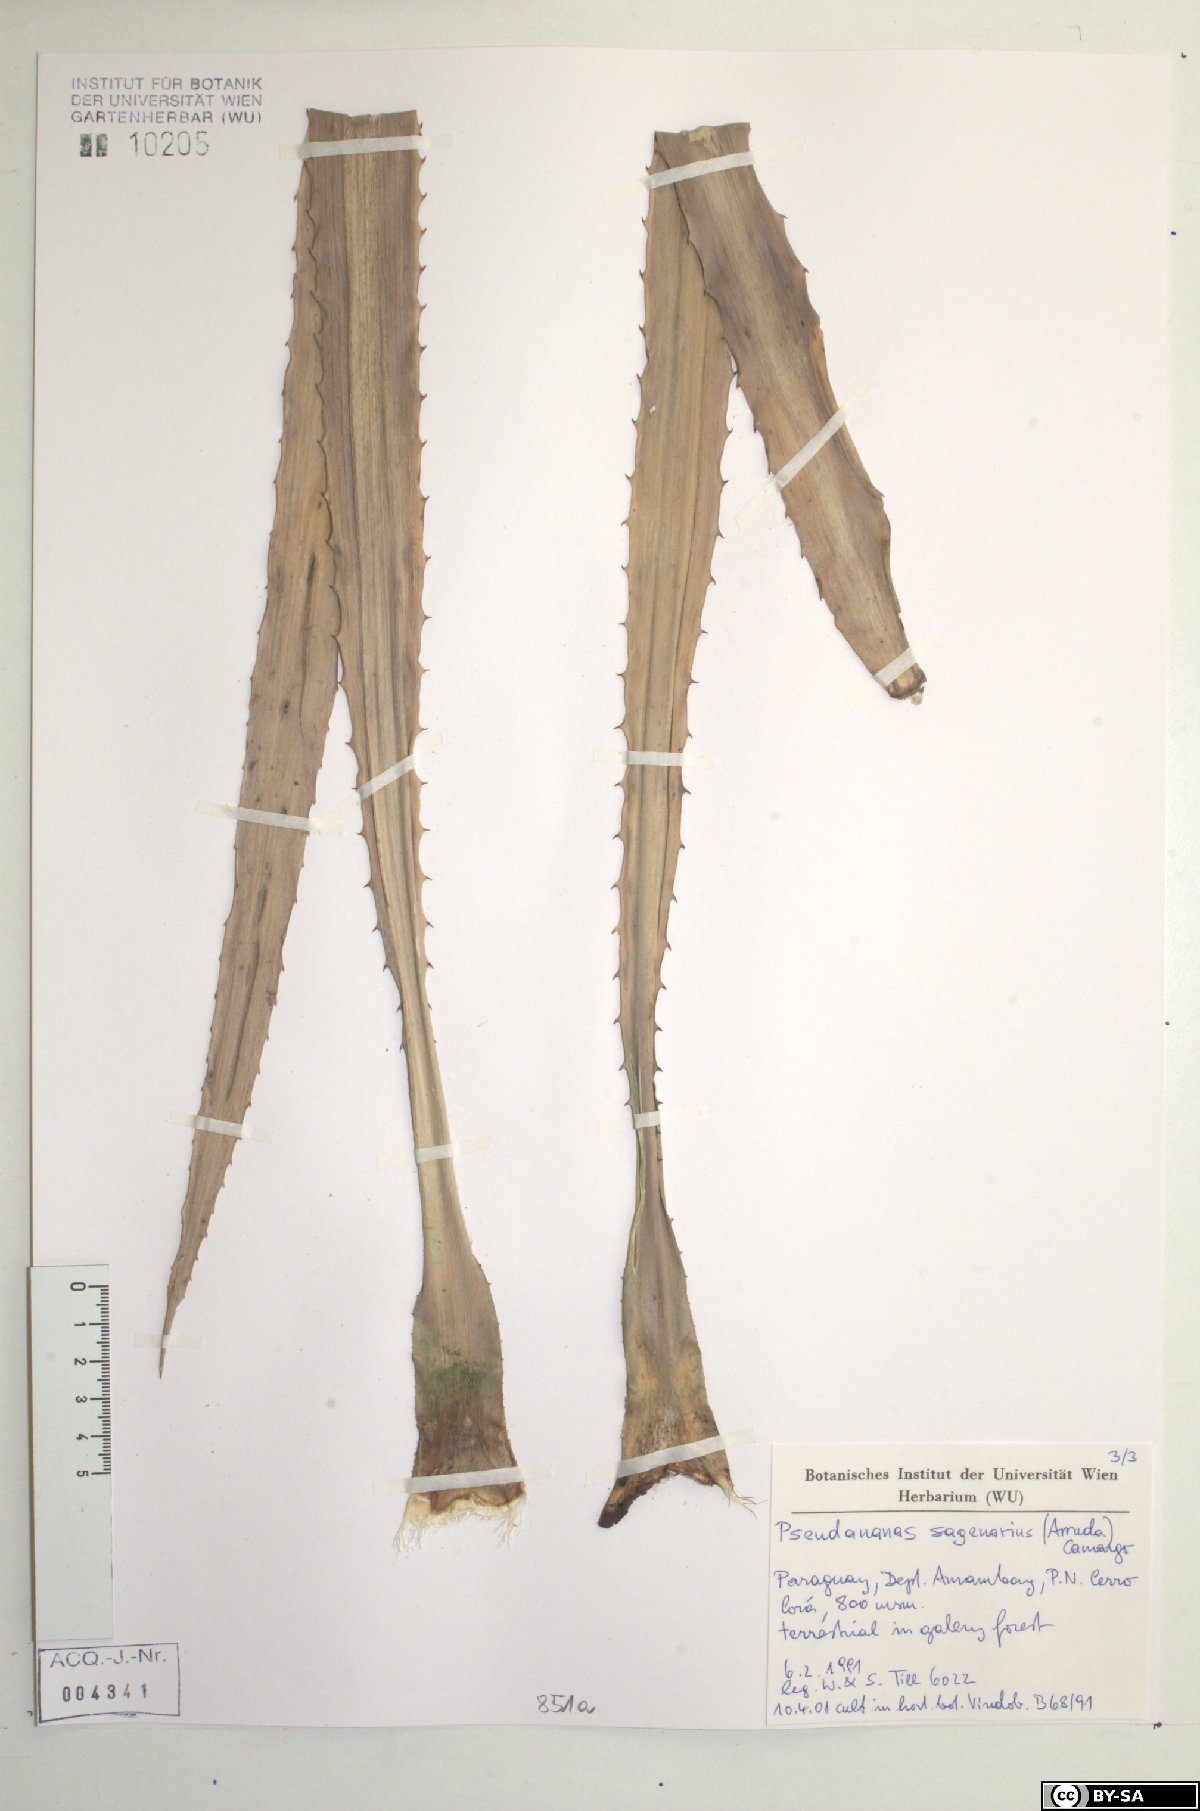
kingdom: Plantae
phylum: Tracheophyta
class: Liliopsida
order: Poales
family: Bromeliaceae
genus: Ananas
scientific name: Ananas comosus
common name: Pineapple
